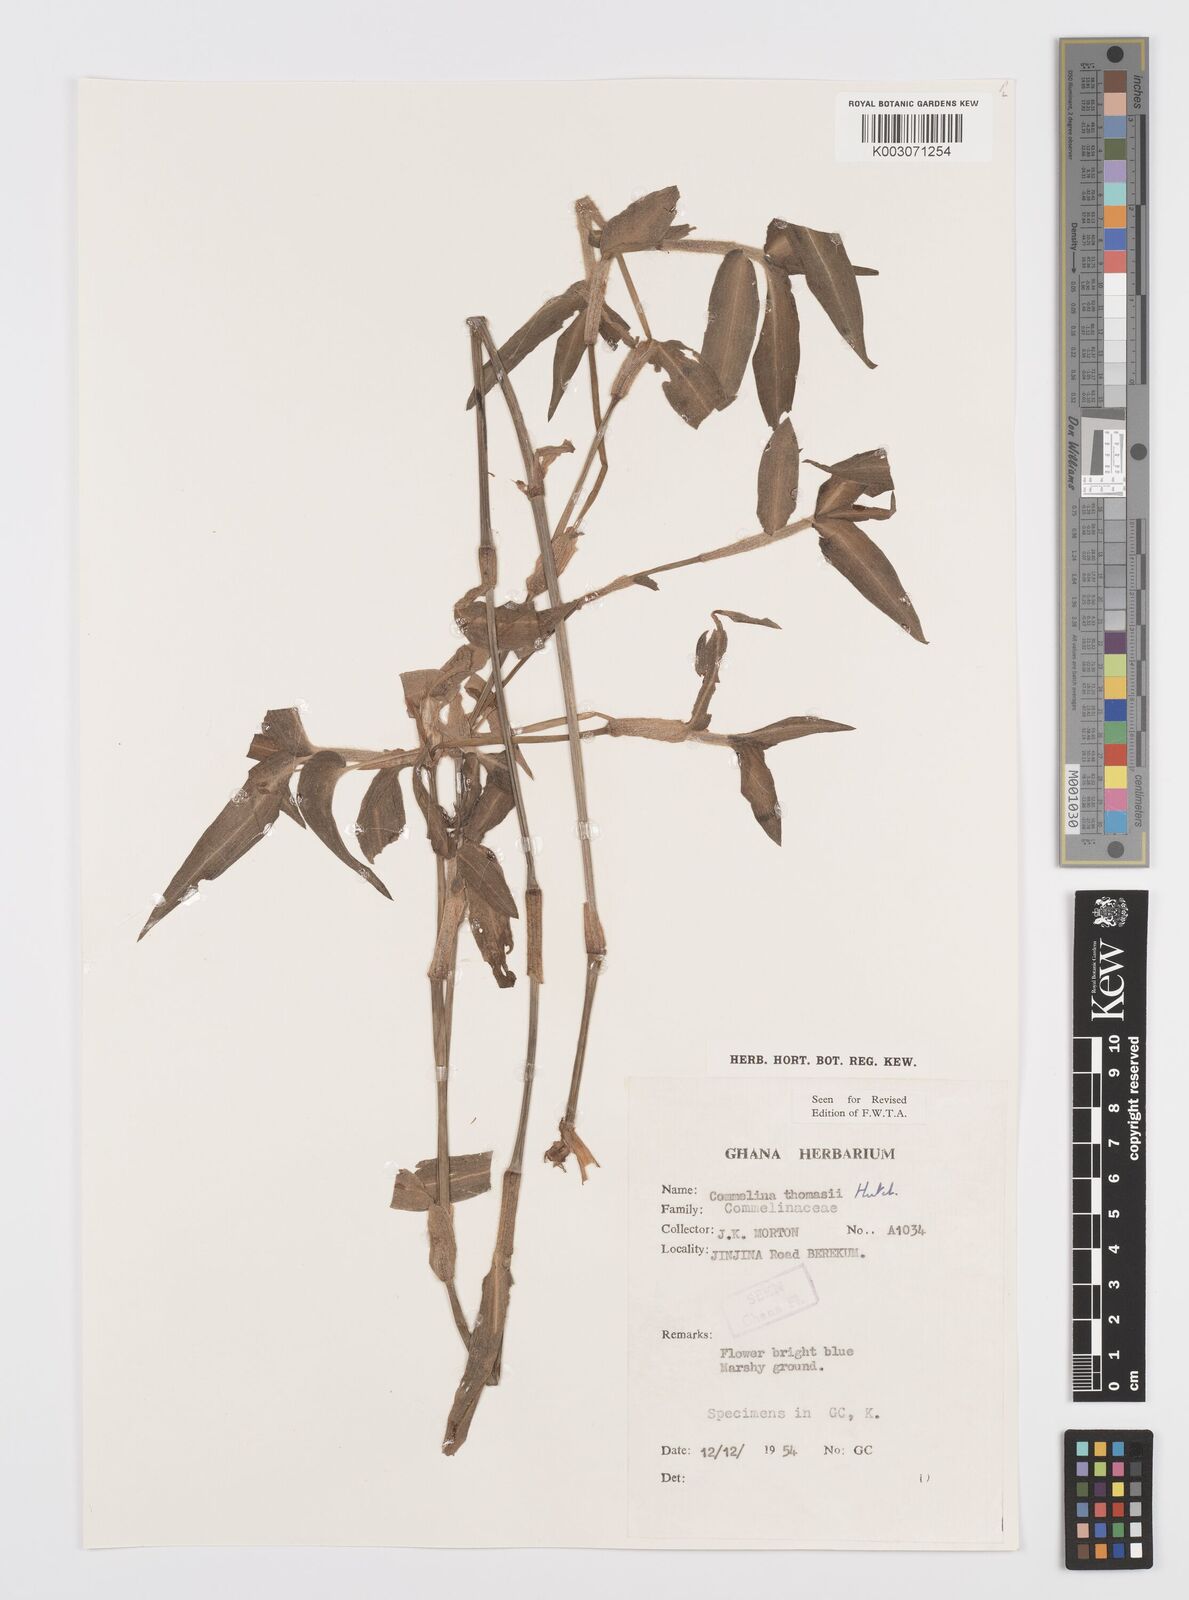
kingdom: Plantae
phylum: Tracheophyta
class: Liliopsida
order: Commelinales
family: Commelinaceae
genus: Commelina
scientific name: Commelina acutispatha
